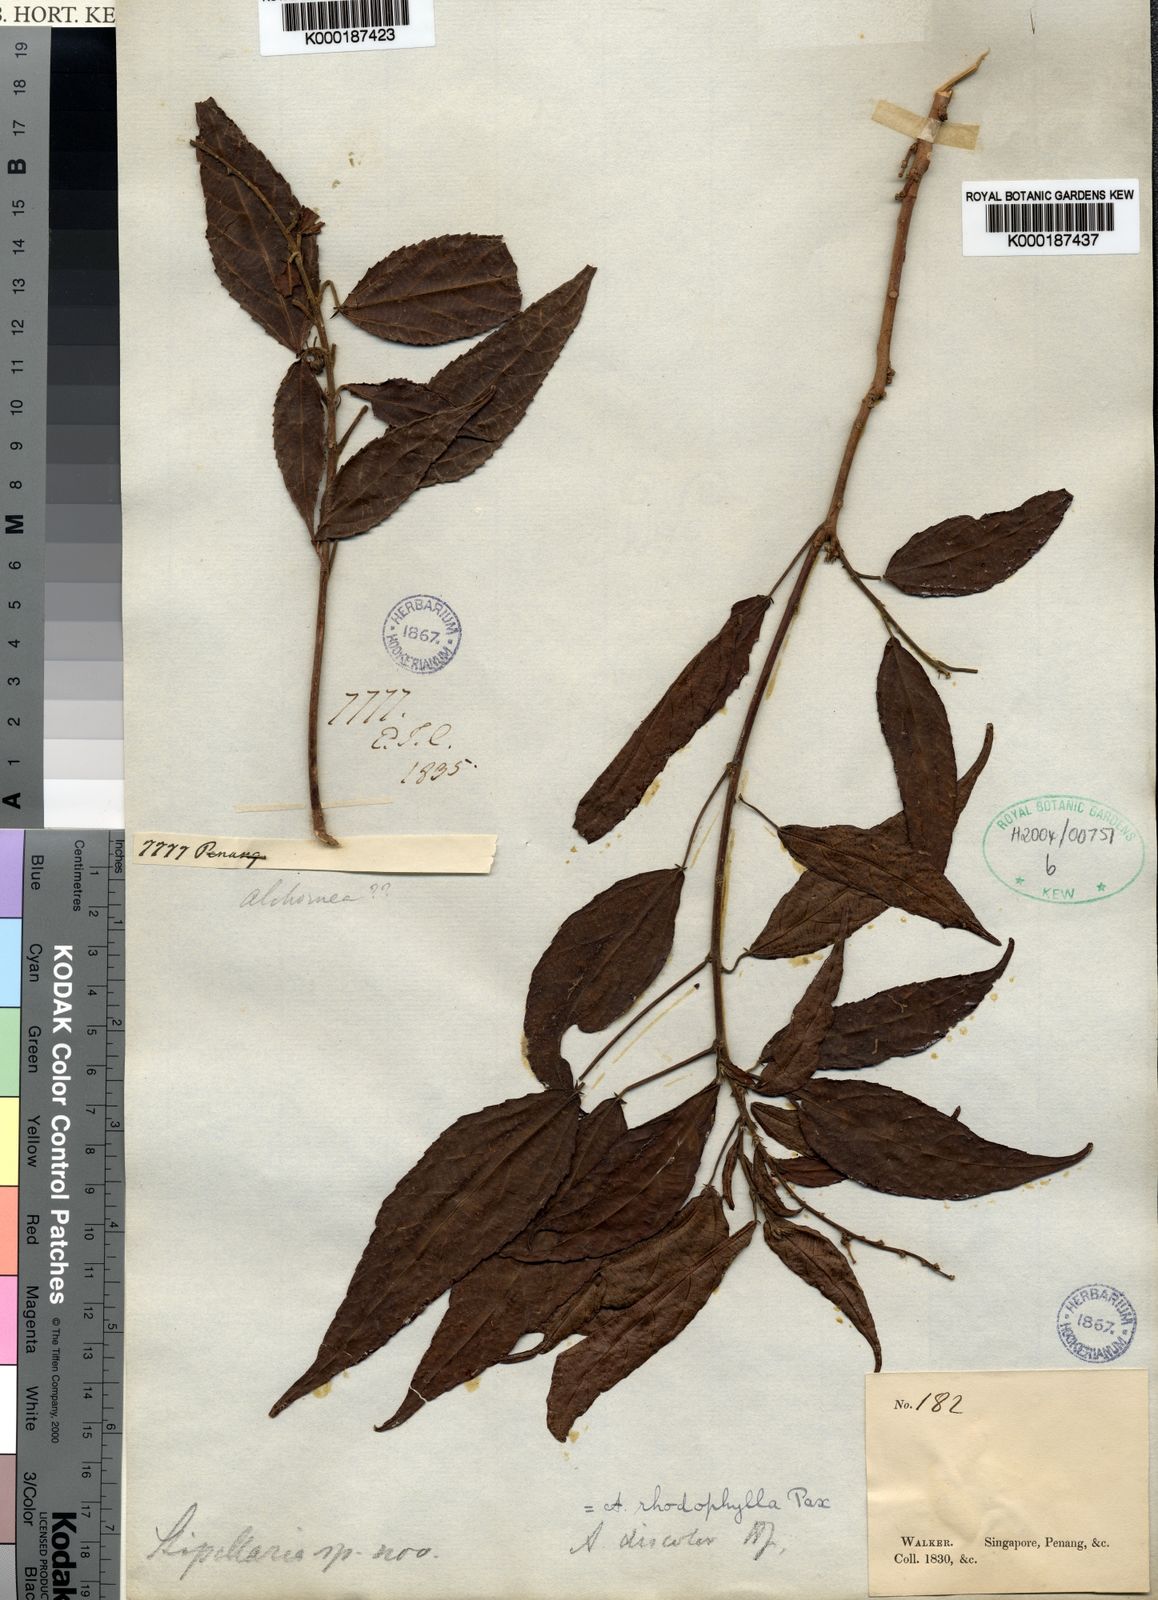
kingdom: Plantae
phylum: Tracheophyta
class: Magnoliopsida
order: Malpighiales
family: Euphorbiaceae
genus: Alchornea
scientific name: Alchornea rhodophylla
